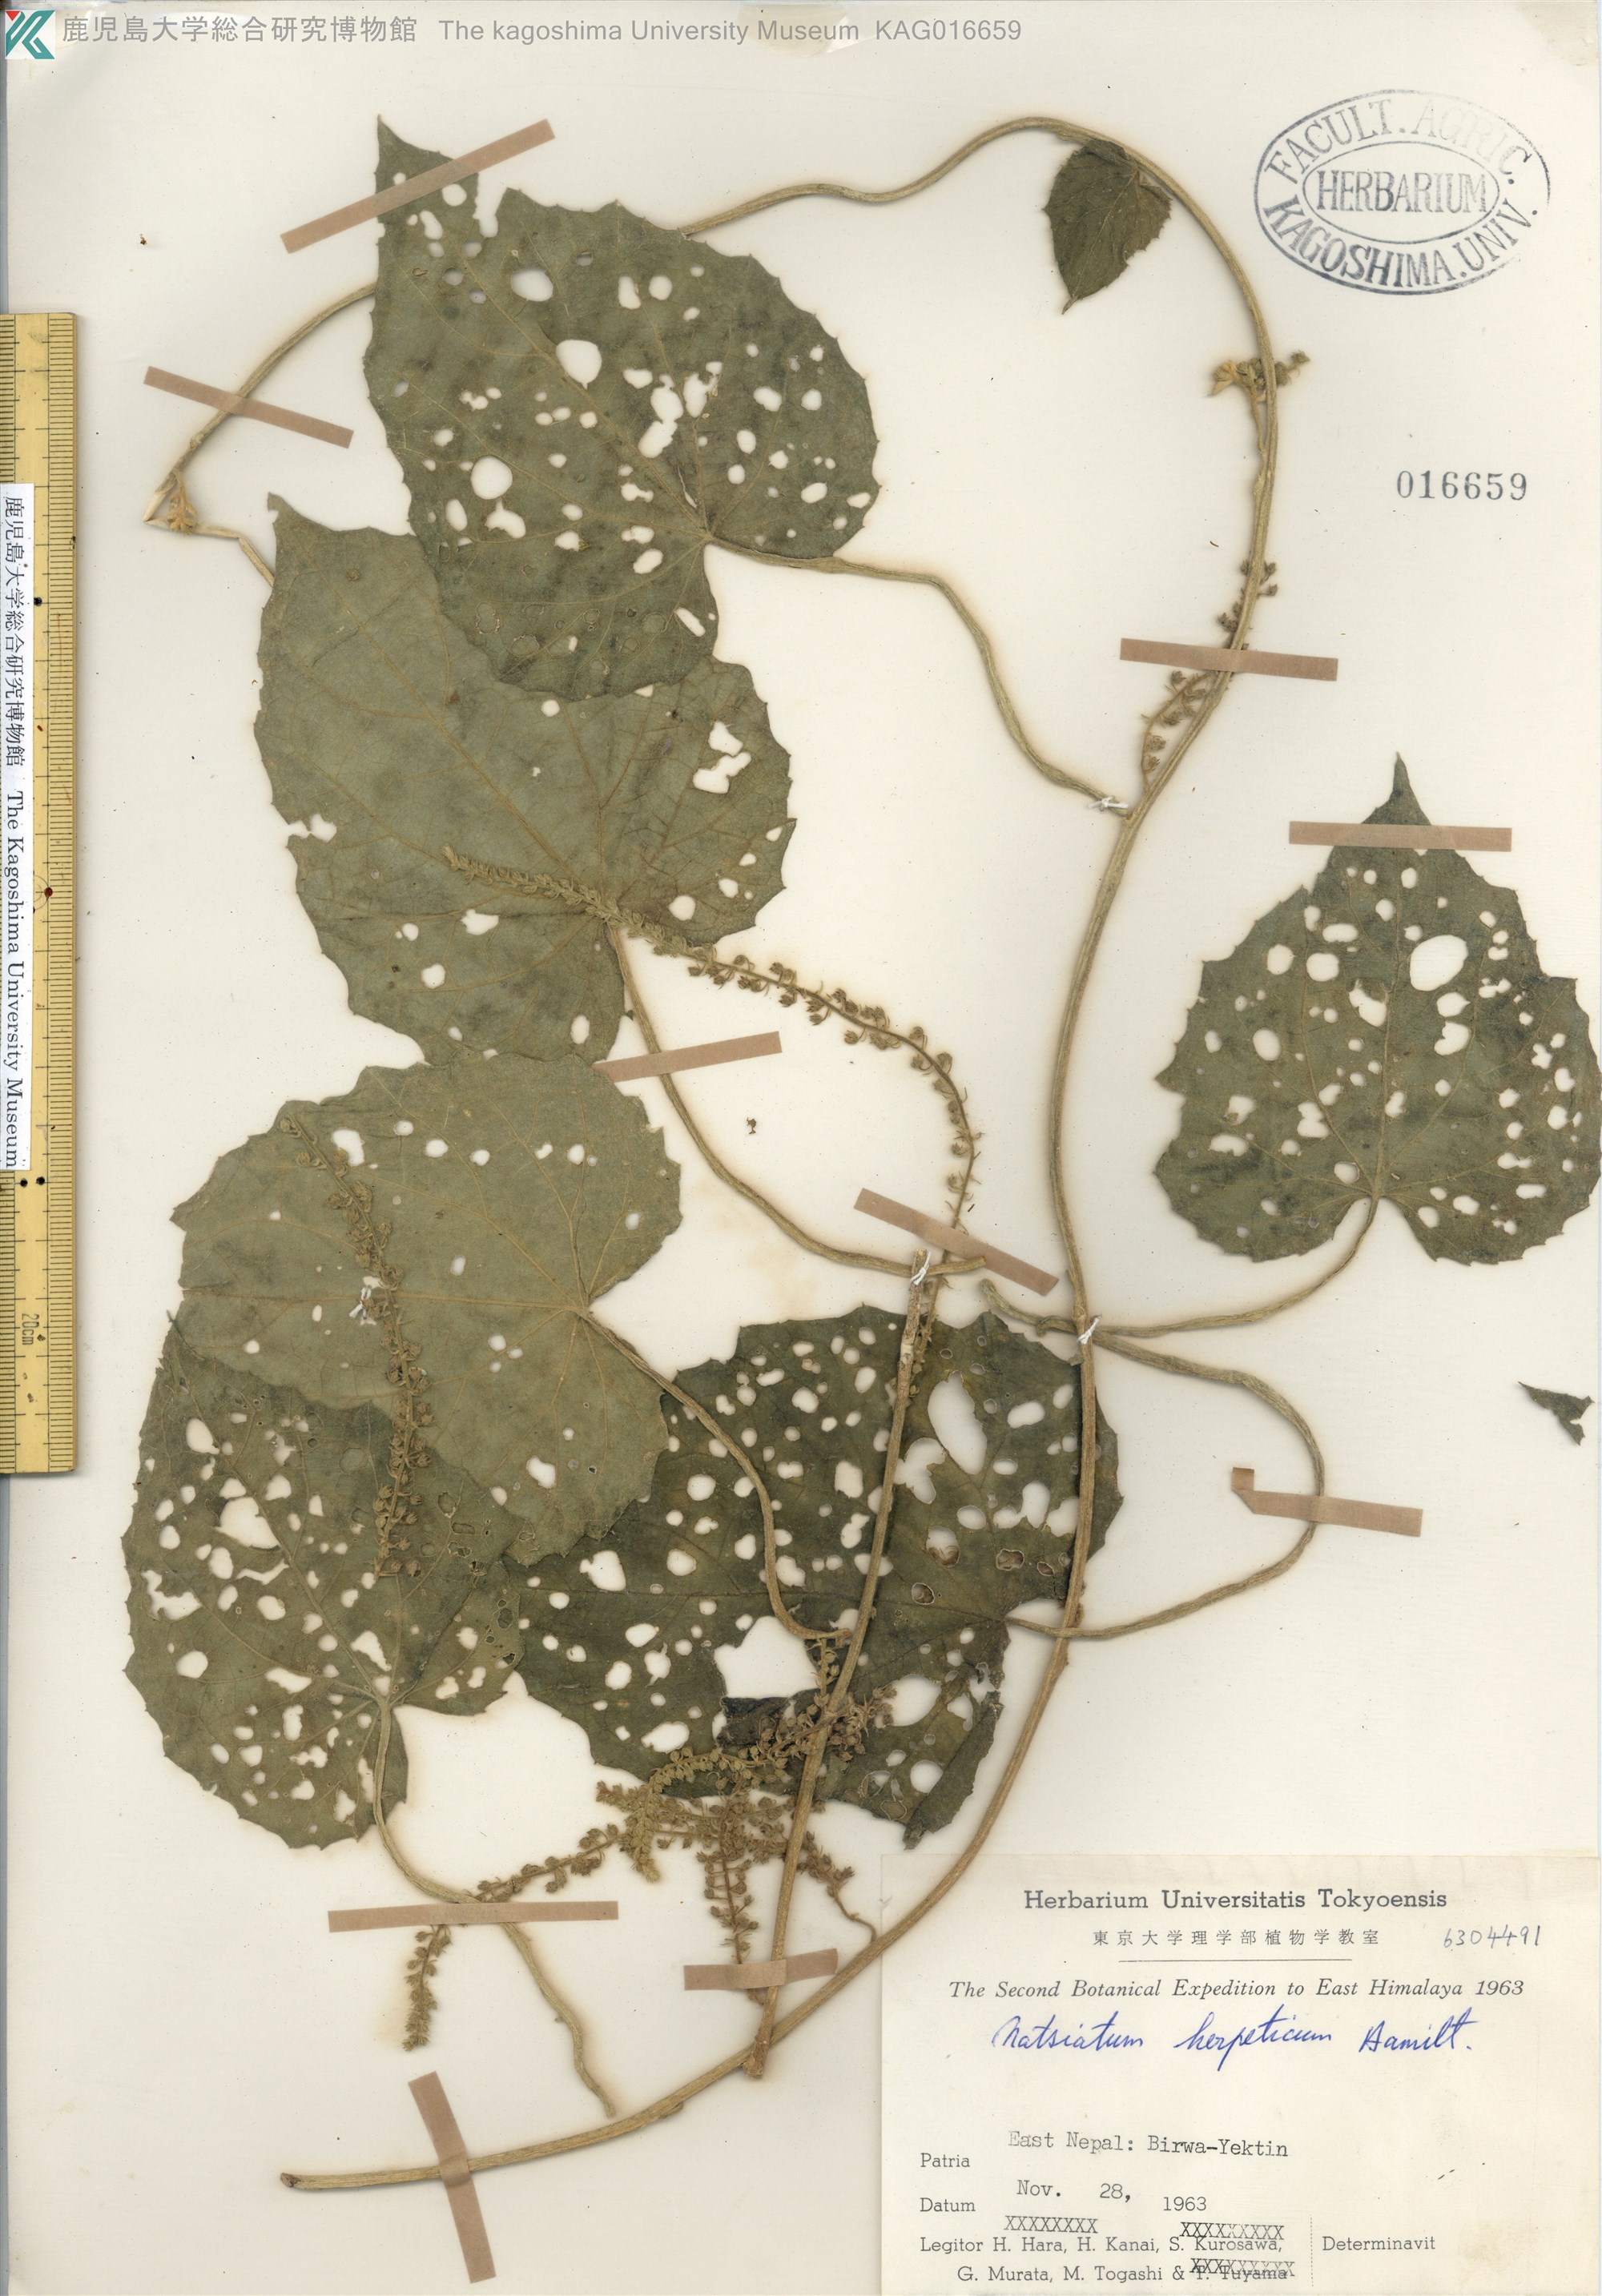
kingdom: Plantae
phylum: Tracheophyta
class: Magnoliopsida
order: Icacinales
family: Icacinaceae
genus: Natsiatum
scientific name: Natsiatum herpeticum
